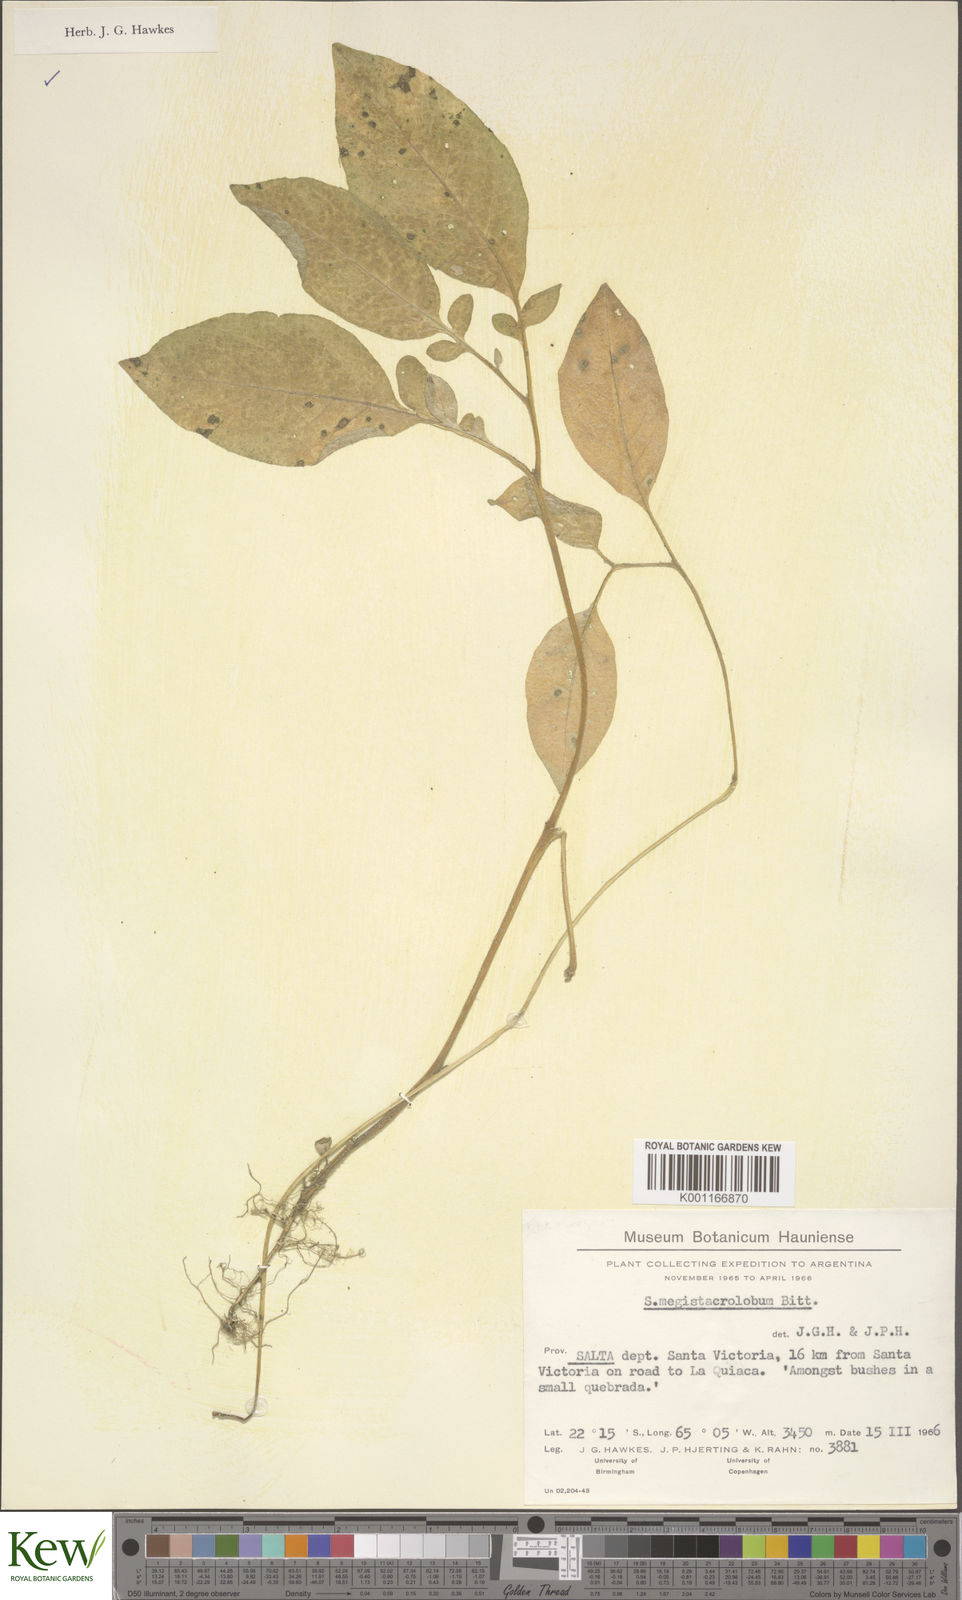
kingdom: Plantae
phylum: Tracheophyta
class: Magnoliopsida
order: Solanales
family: Solanaceae
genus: Solanum
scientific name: Solanum boliviense
